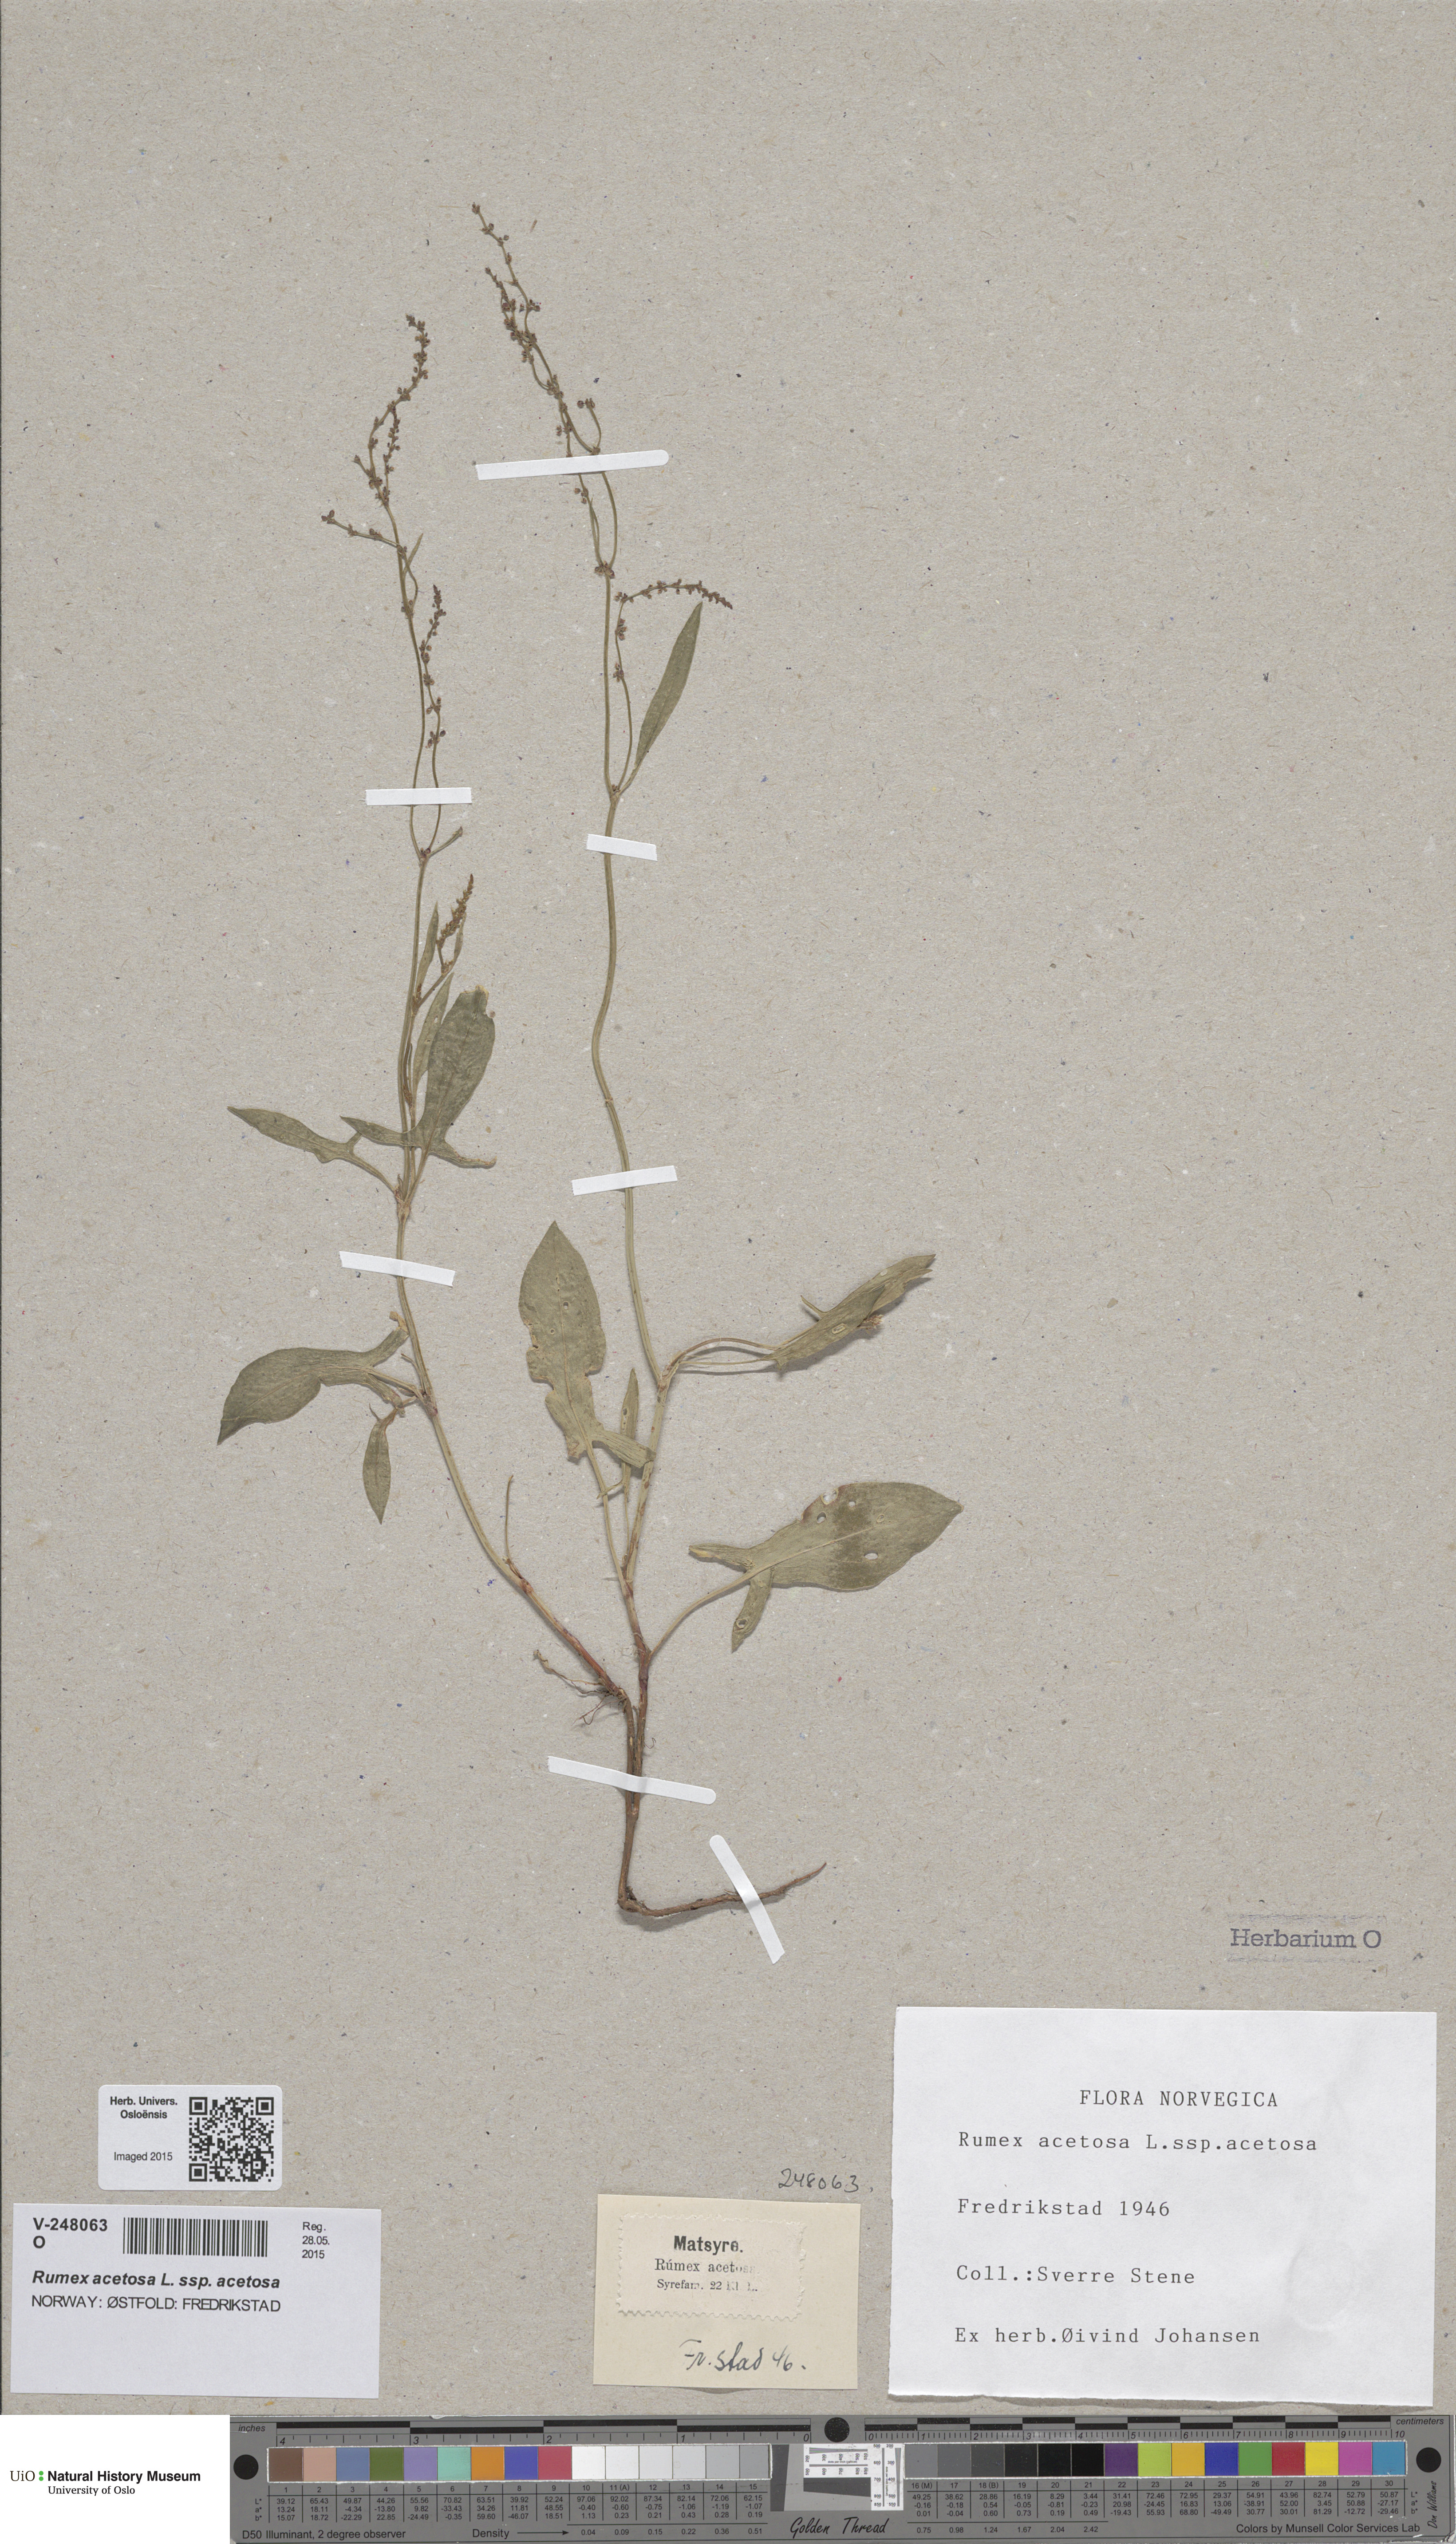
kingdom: Plantae
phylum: Tracheophyta
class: Magnoliopsida
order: Caryophyllales
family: Polygonaceae
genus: Rumex
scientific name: Rumex acetosella
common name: Common sheep sorrel
